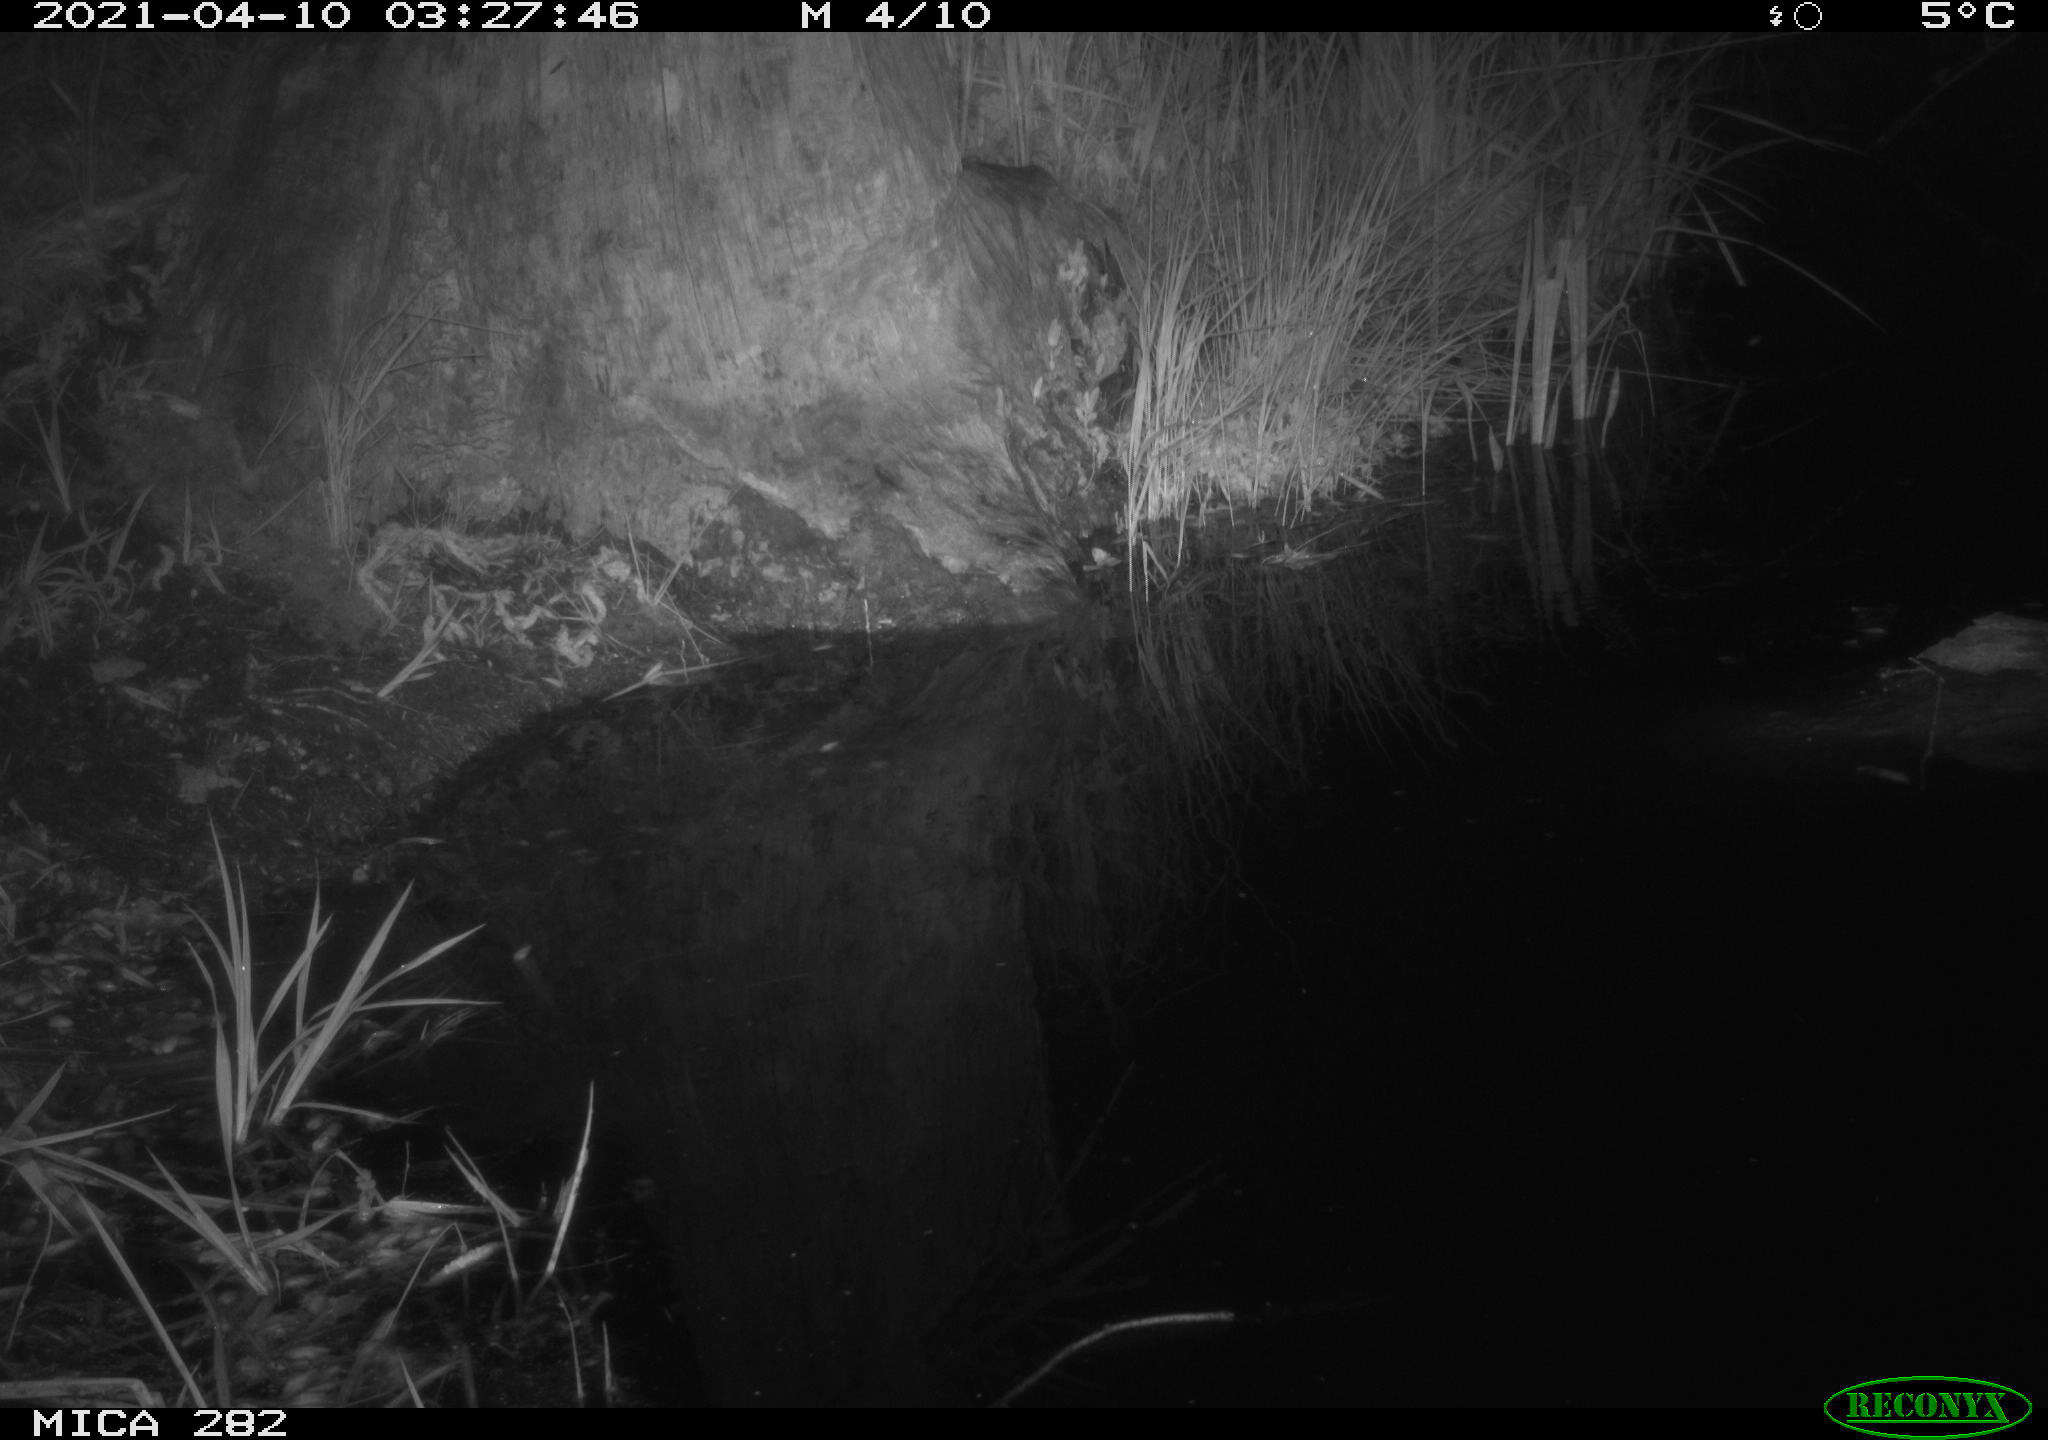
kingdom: Animalia
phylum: Chordata
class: Mammalia
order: Artiodactyla
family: Cervidae
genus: Capreolus
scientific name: Capreolus capreolus
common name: Western roe deer
